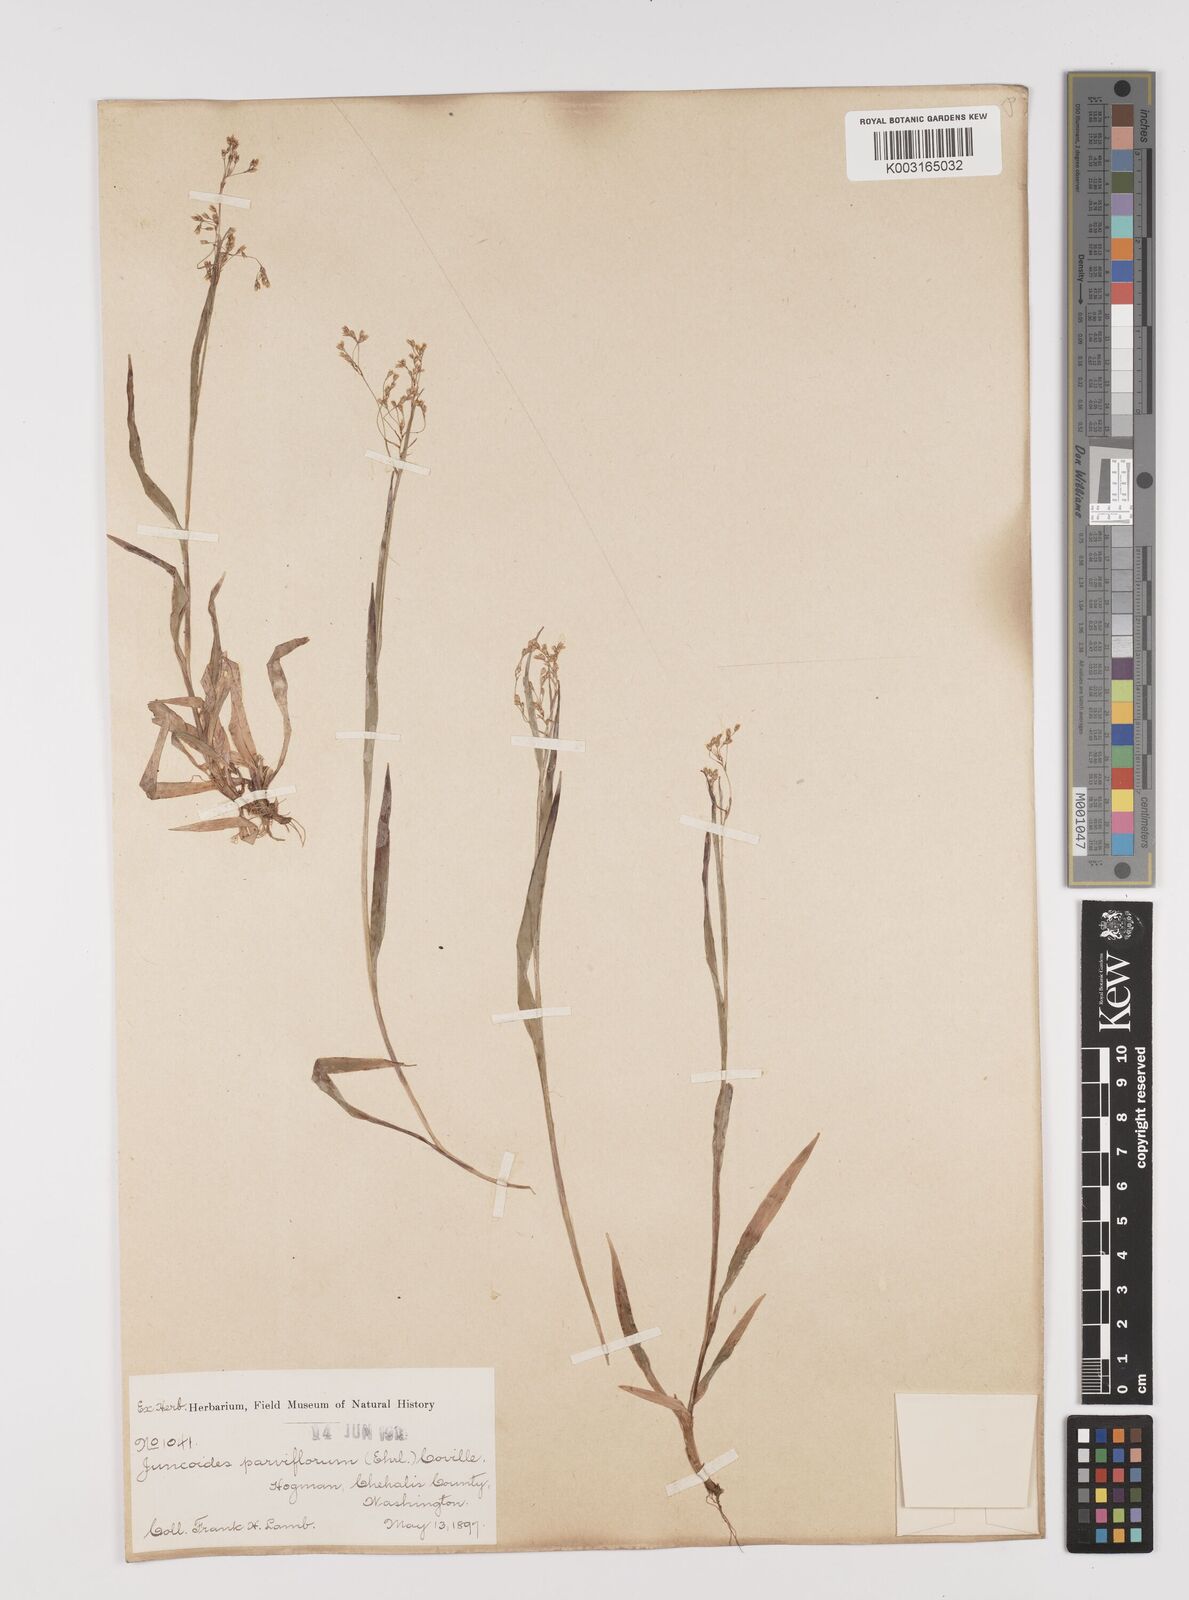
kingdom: Plantae
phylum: Tracheophyta
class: Liliopsida
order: Poales
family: Juncaceae
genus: Luzula
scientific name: Luzula parviflora
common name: Millet woodrush
